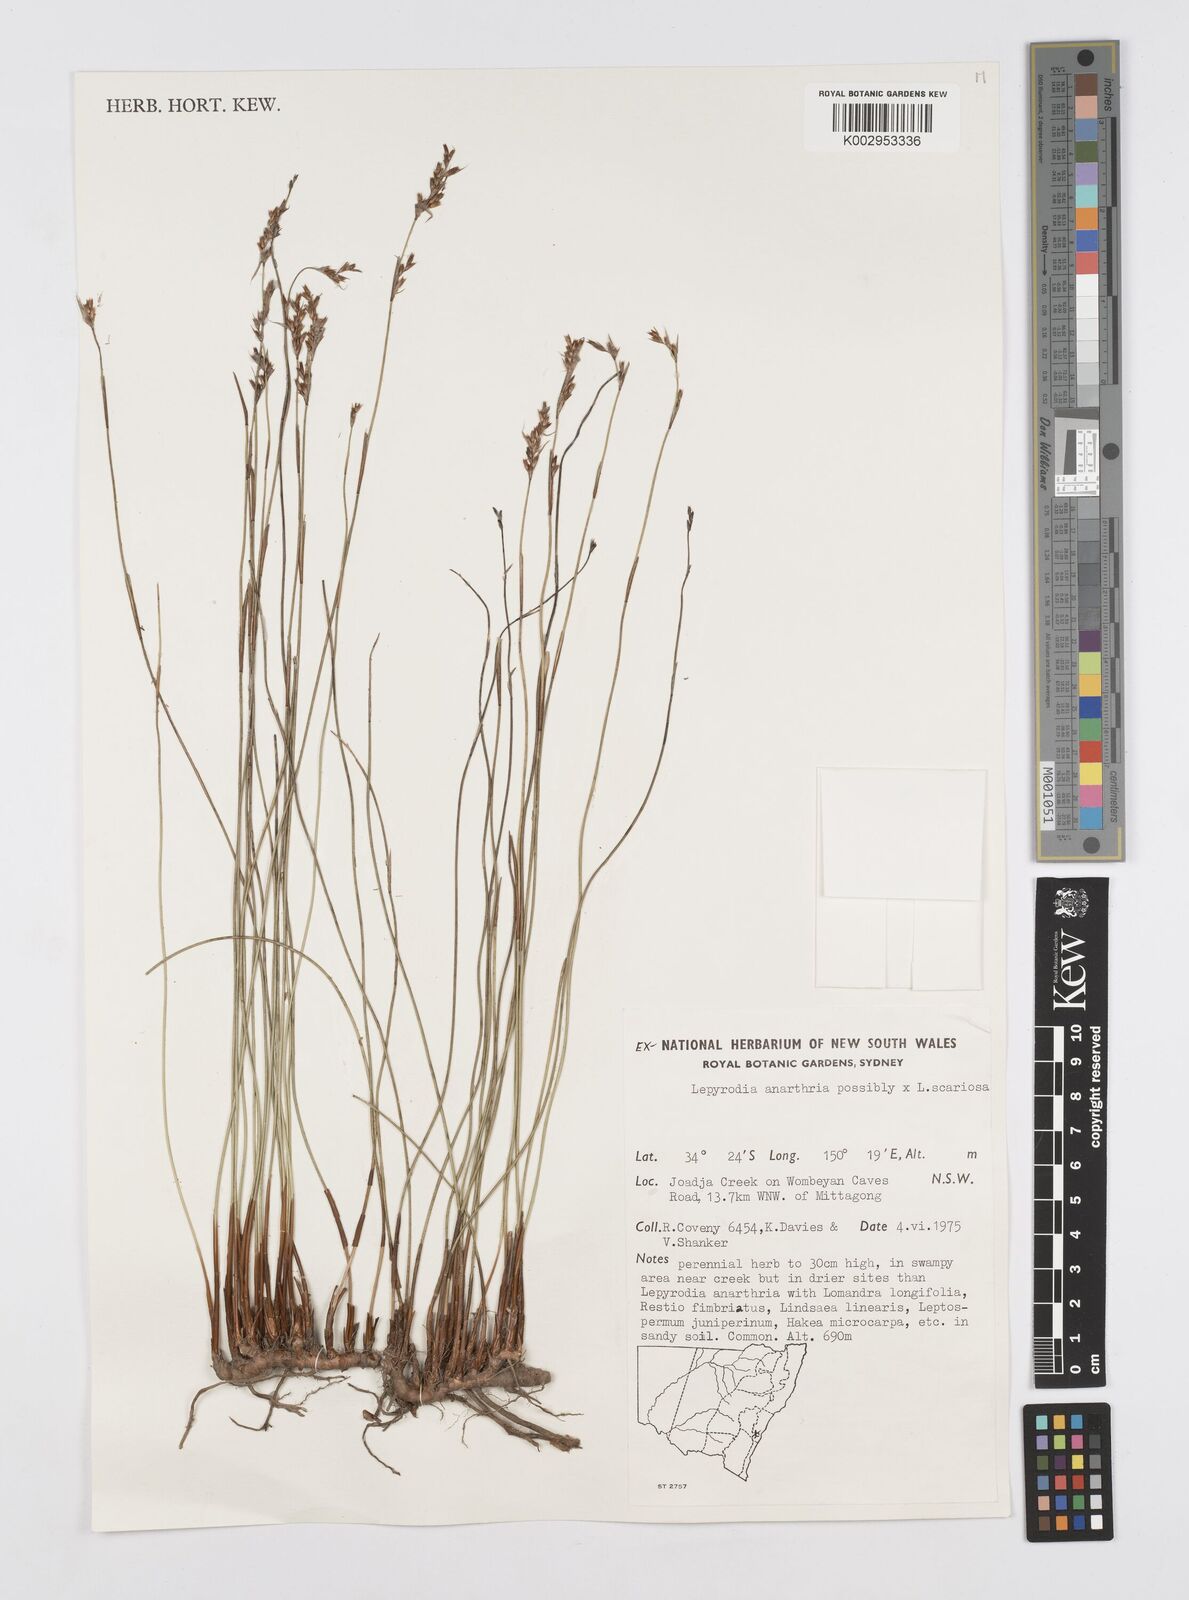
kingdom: Plantae
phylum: Tracheophyta
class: Liliopsida
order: Poales
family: Restionaceae
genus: Lepyrodia
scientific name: Lepyrodia anarthria
